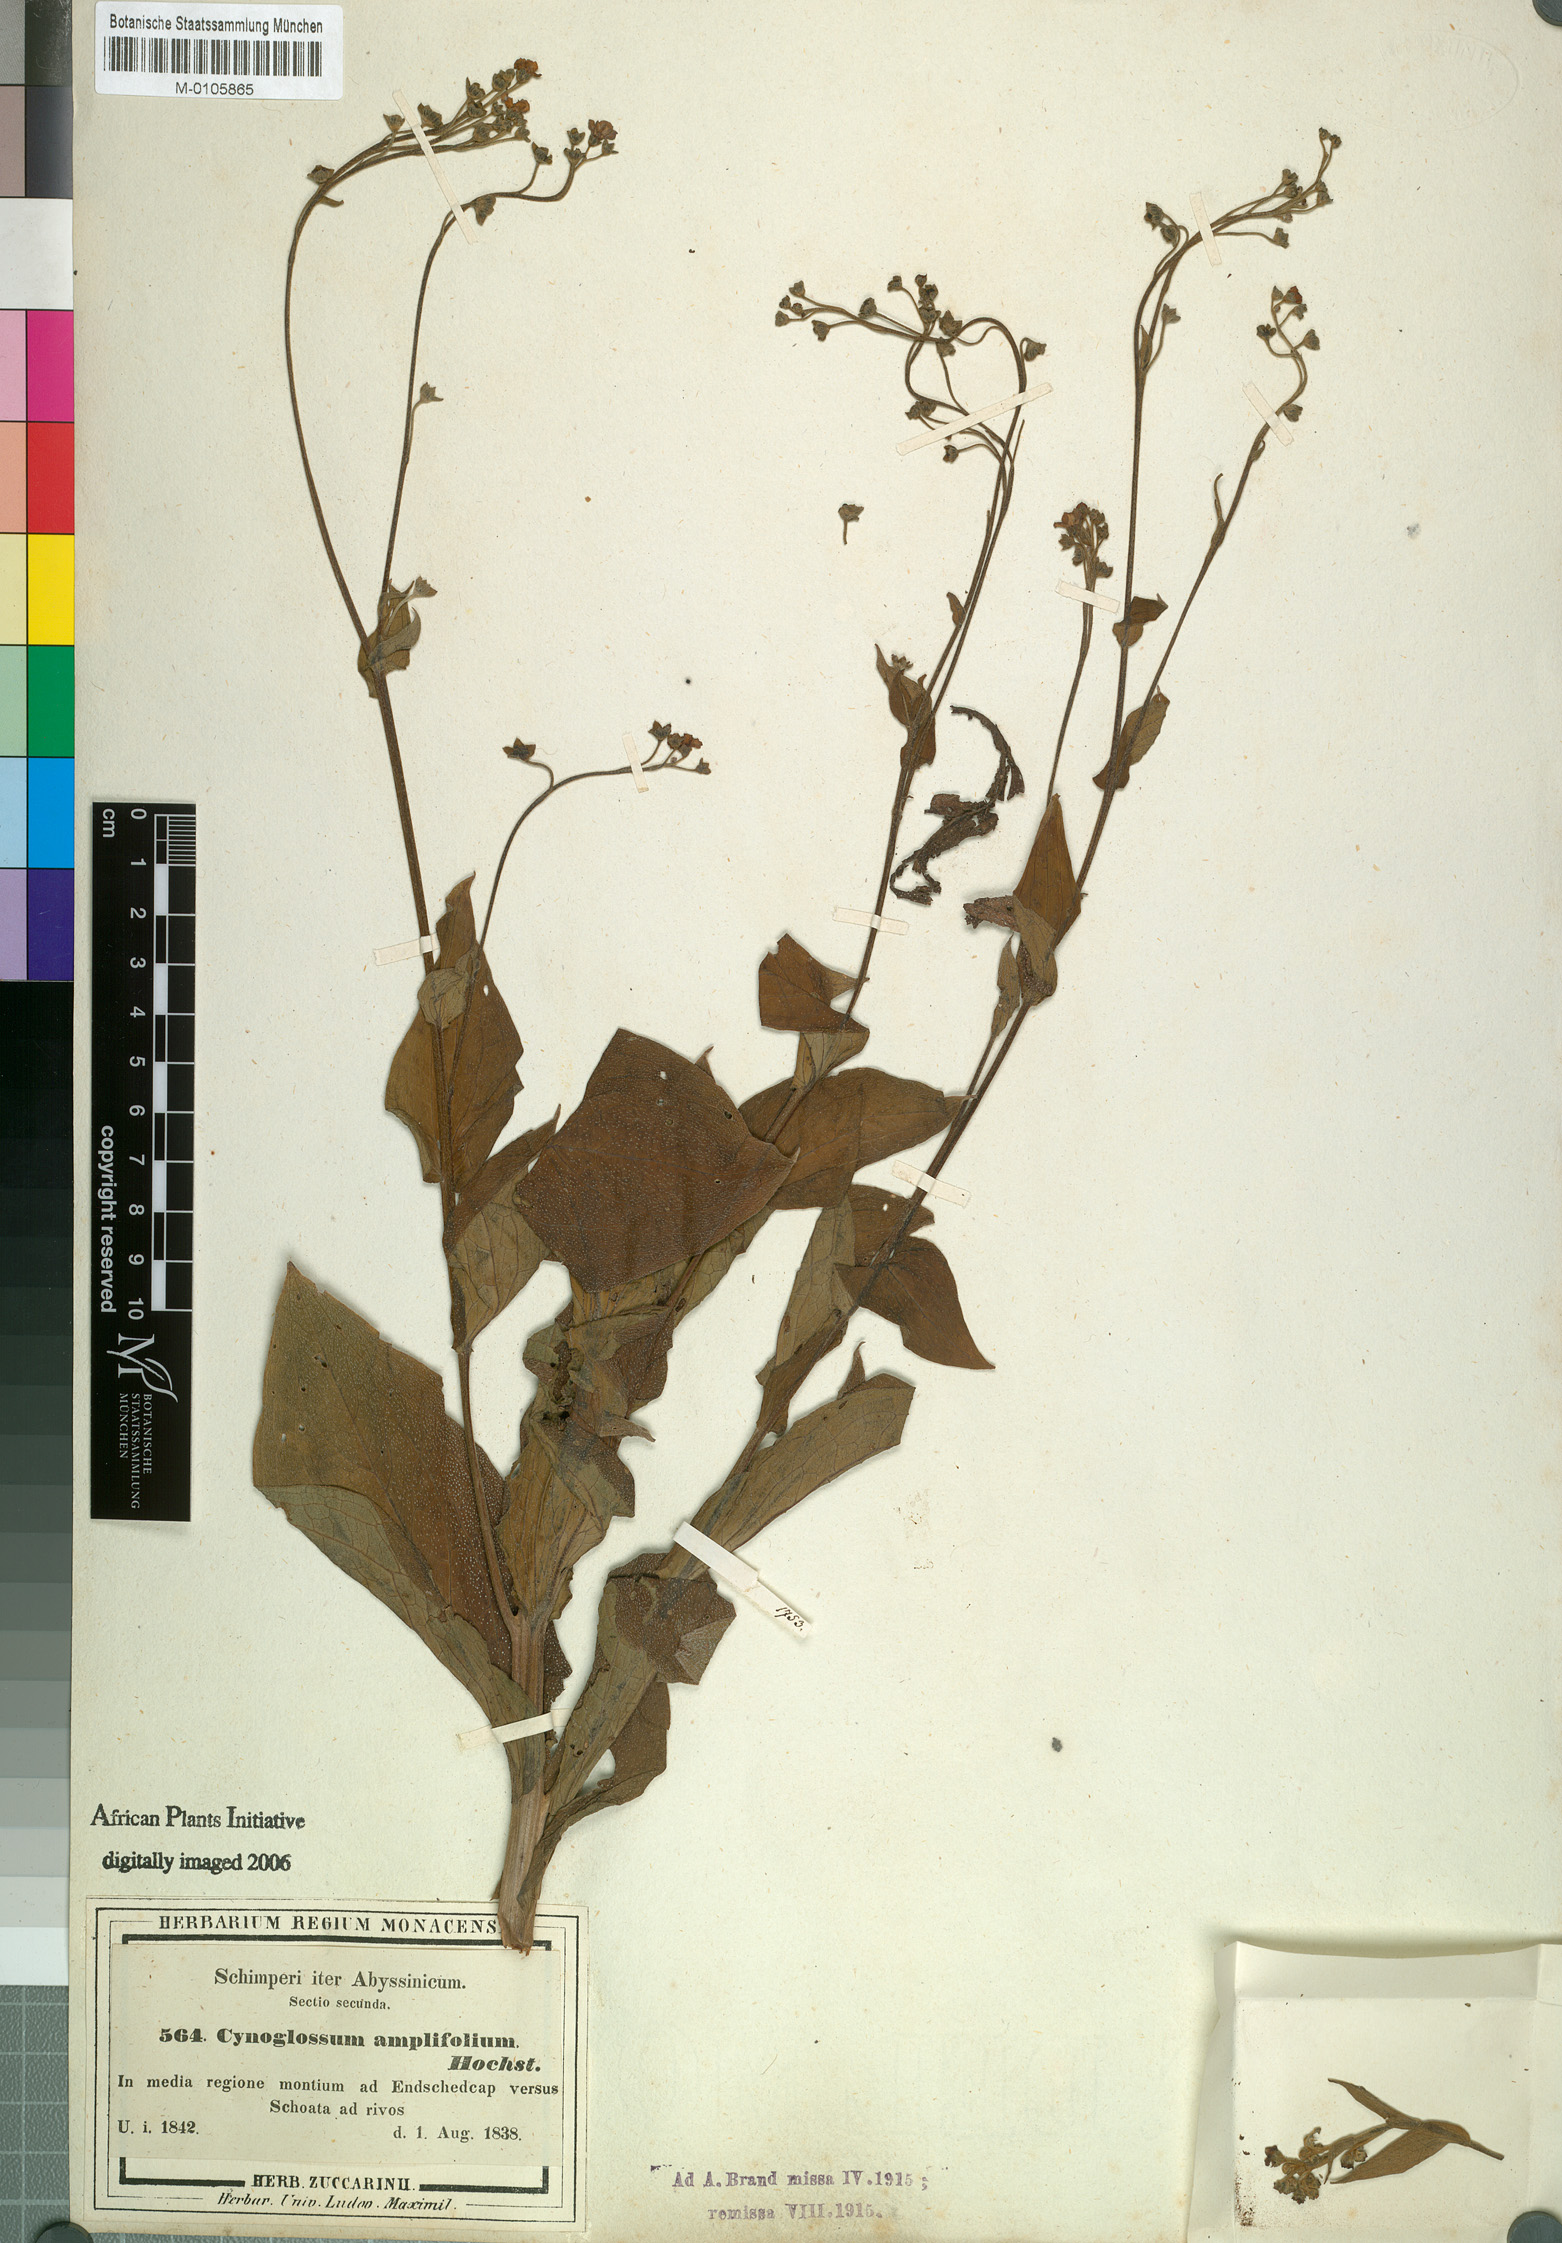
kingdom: Plantae
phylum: Tracheophyta
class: Magnoliopsida
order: Boraginales
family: Boraginaceae
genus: Cynoglossum
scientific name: Cynoglossum amplifolium
